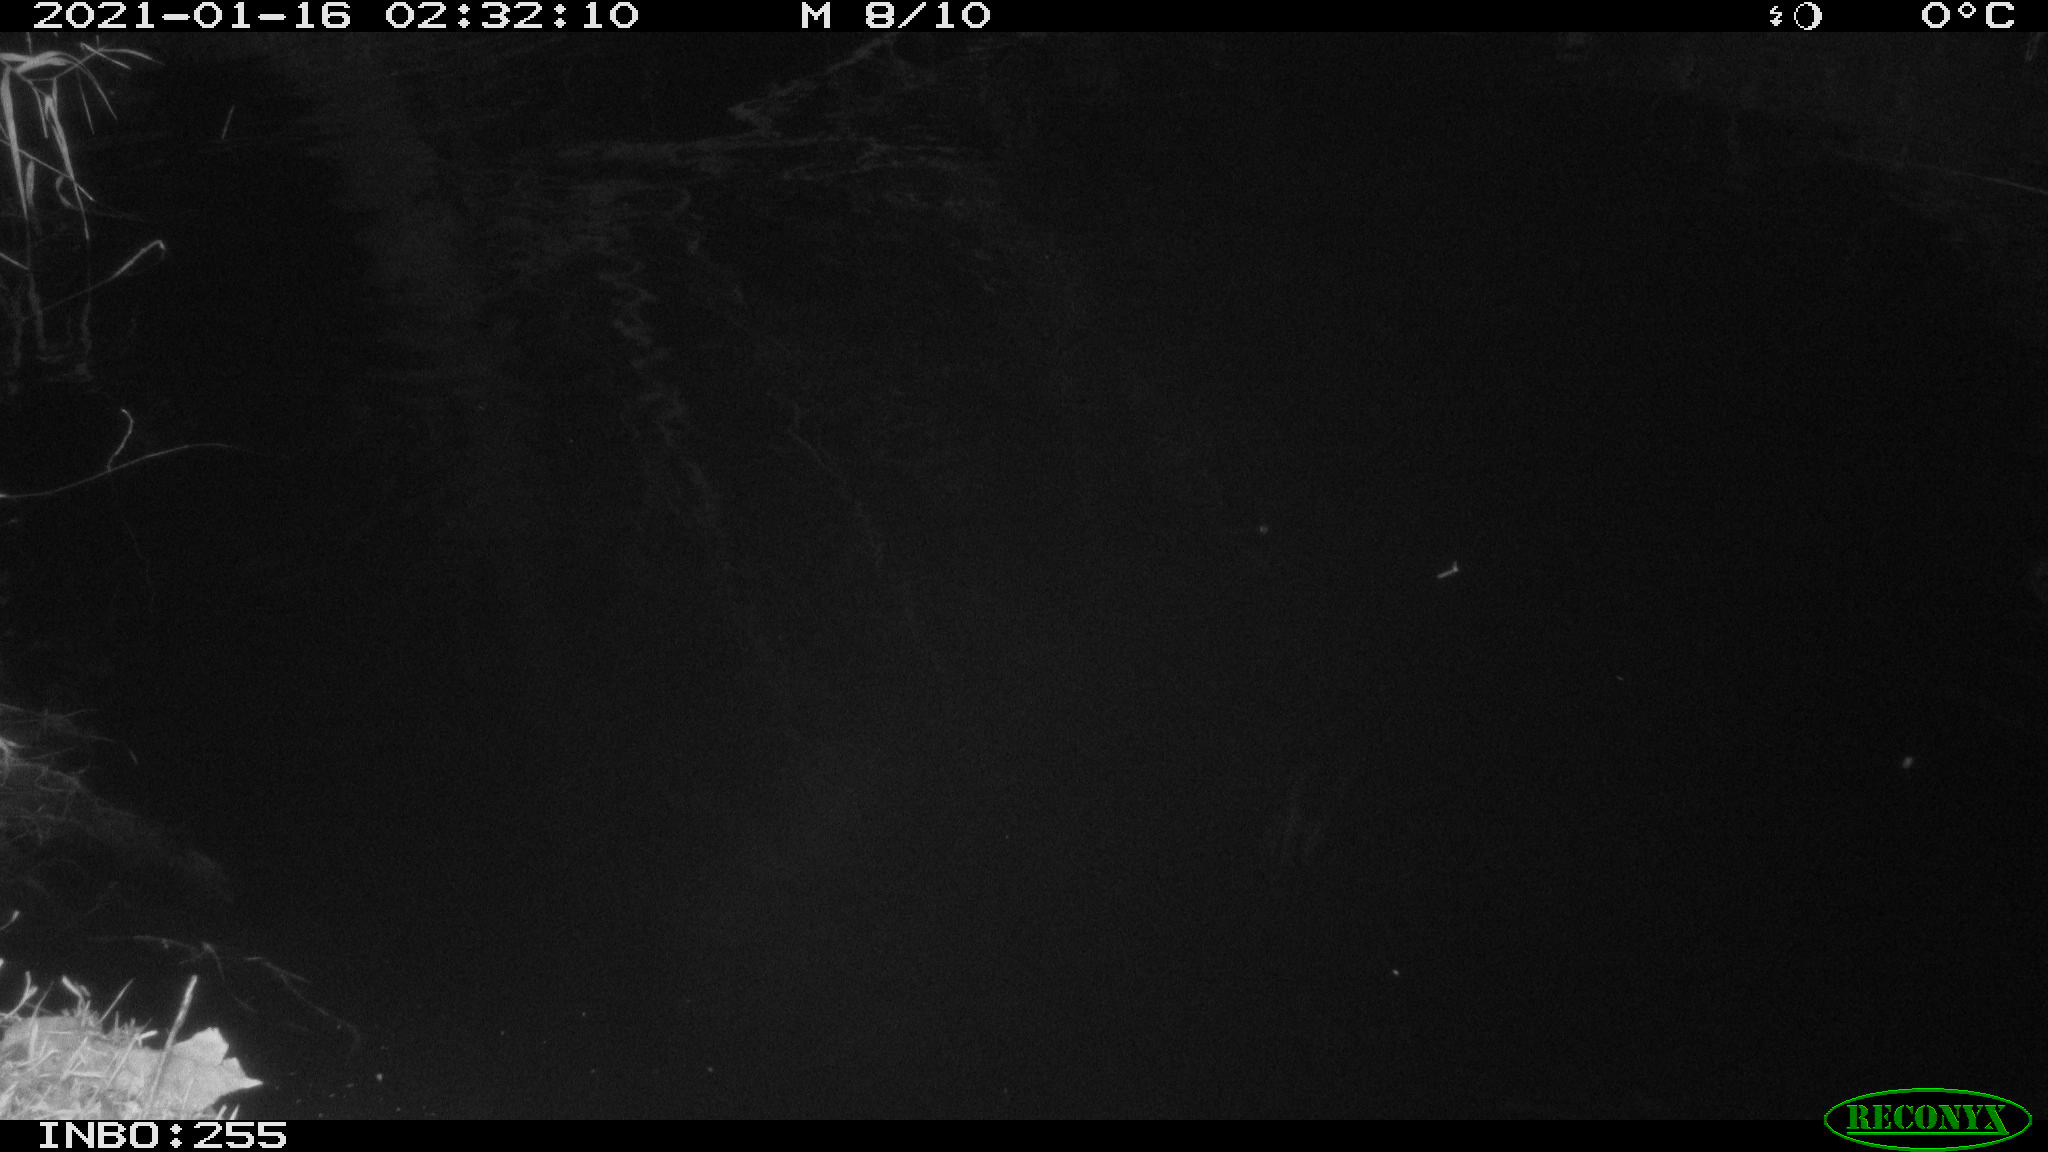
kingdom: Animalia
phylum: Chordata
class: Aves
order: Anseriformes
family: Anatidae
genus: Anas
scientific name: Anas platyrhynchos
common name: Mallard
